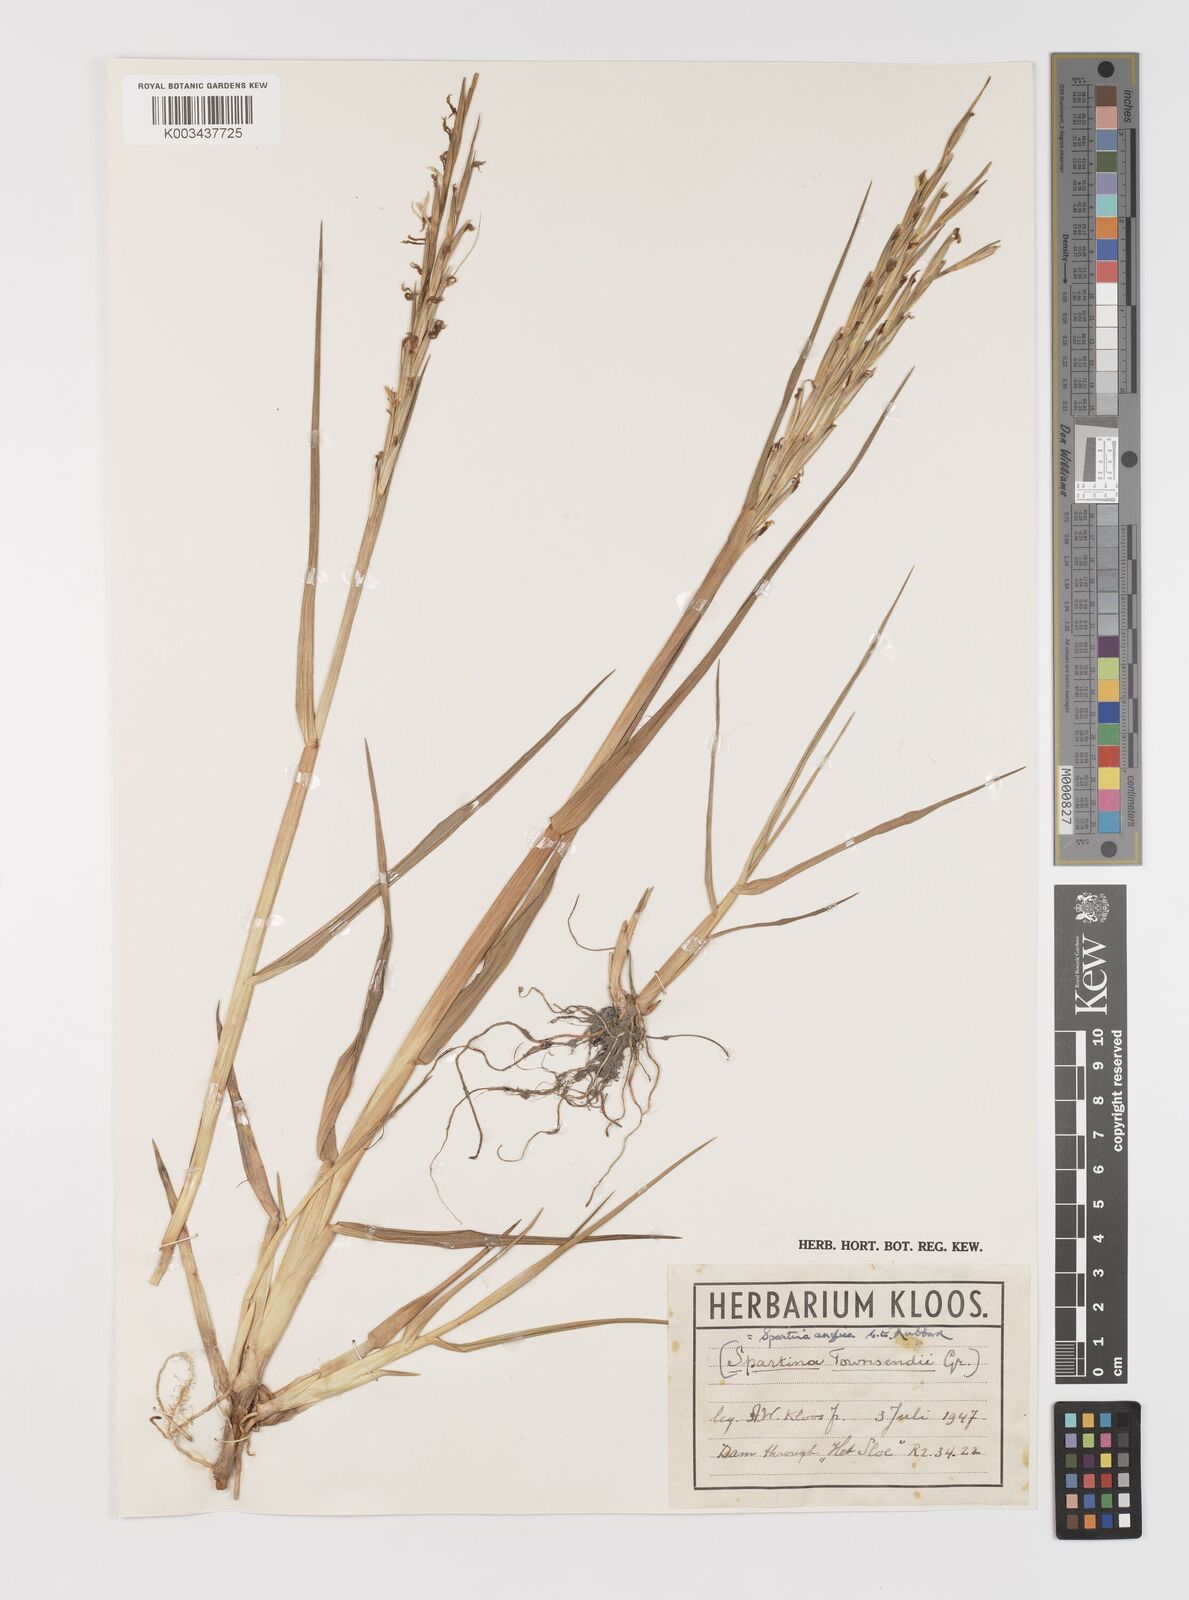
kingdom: Plantae
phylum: Tracheophyta
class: Liliopsida
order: Poales
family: Poaceae
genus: Sporobolus
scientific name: Sporobolus anglicus
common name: English cordgrass
